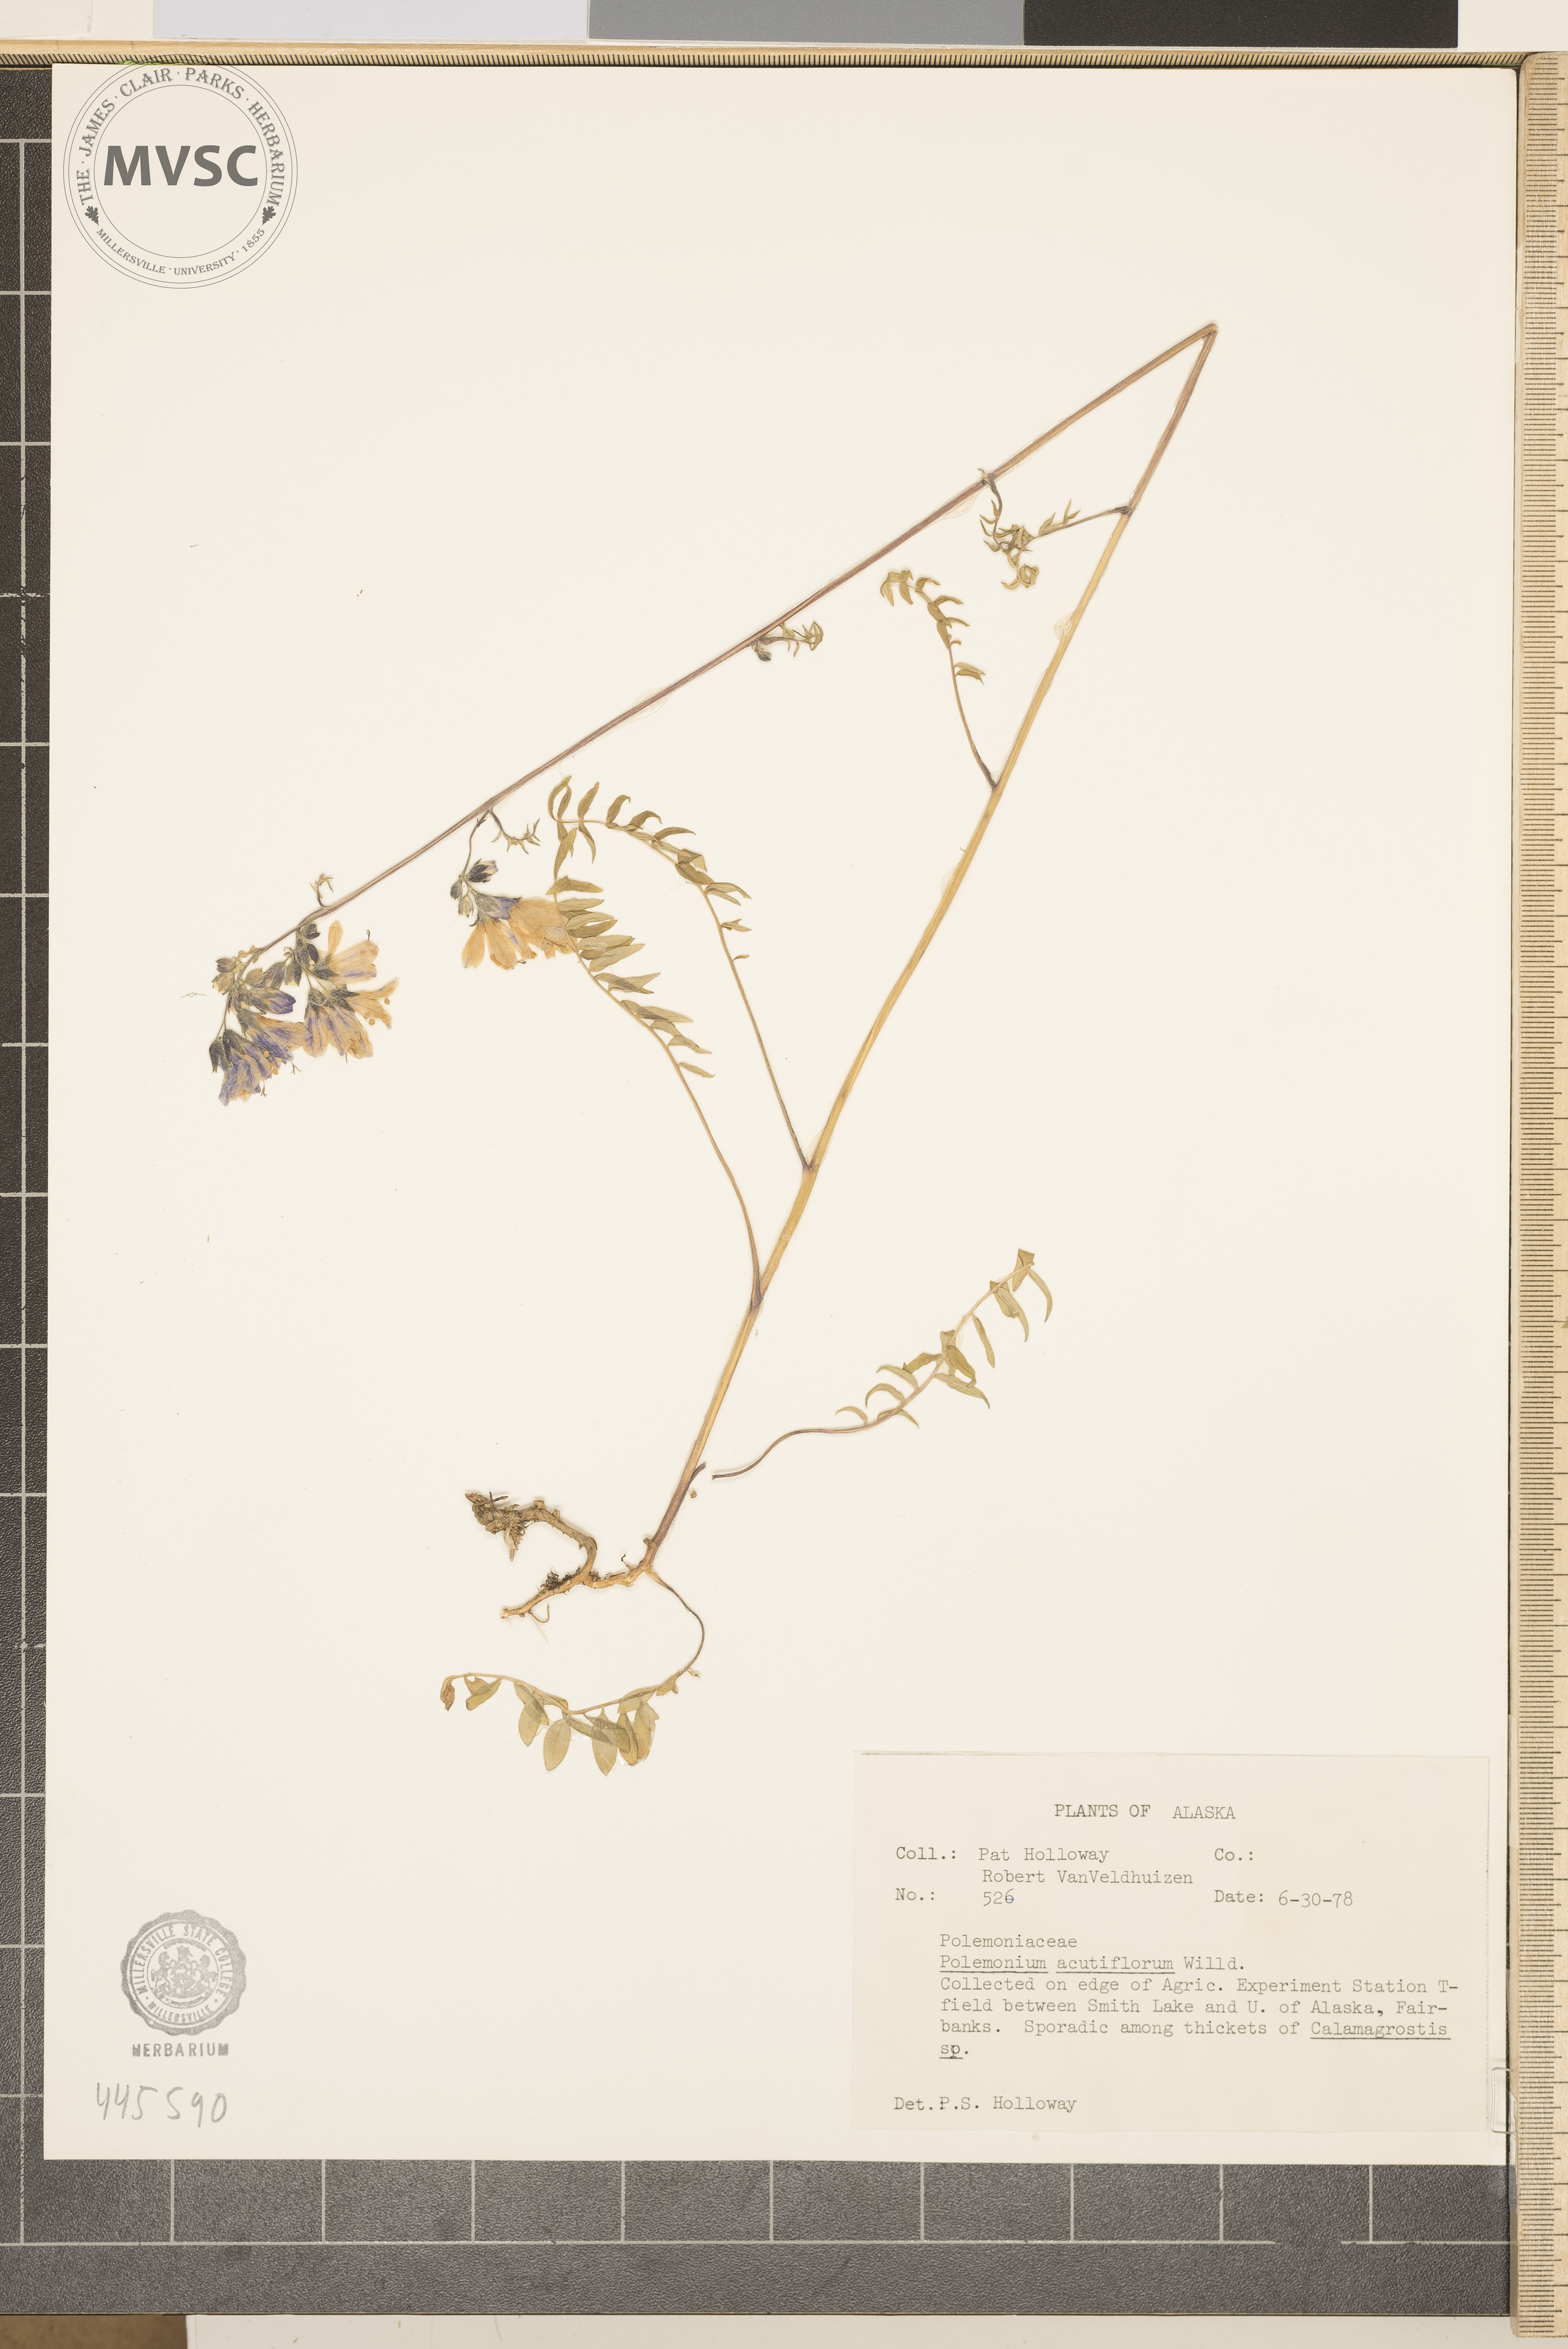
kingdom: Plantae
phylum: Tracheophyta
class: Magnoliopsida
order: Ericales
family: Polemoniaceae
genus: Polemonium
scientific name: Polemonium villosum
